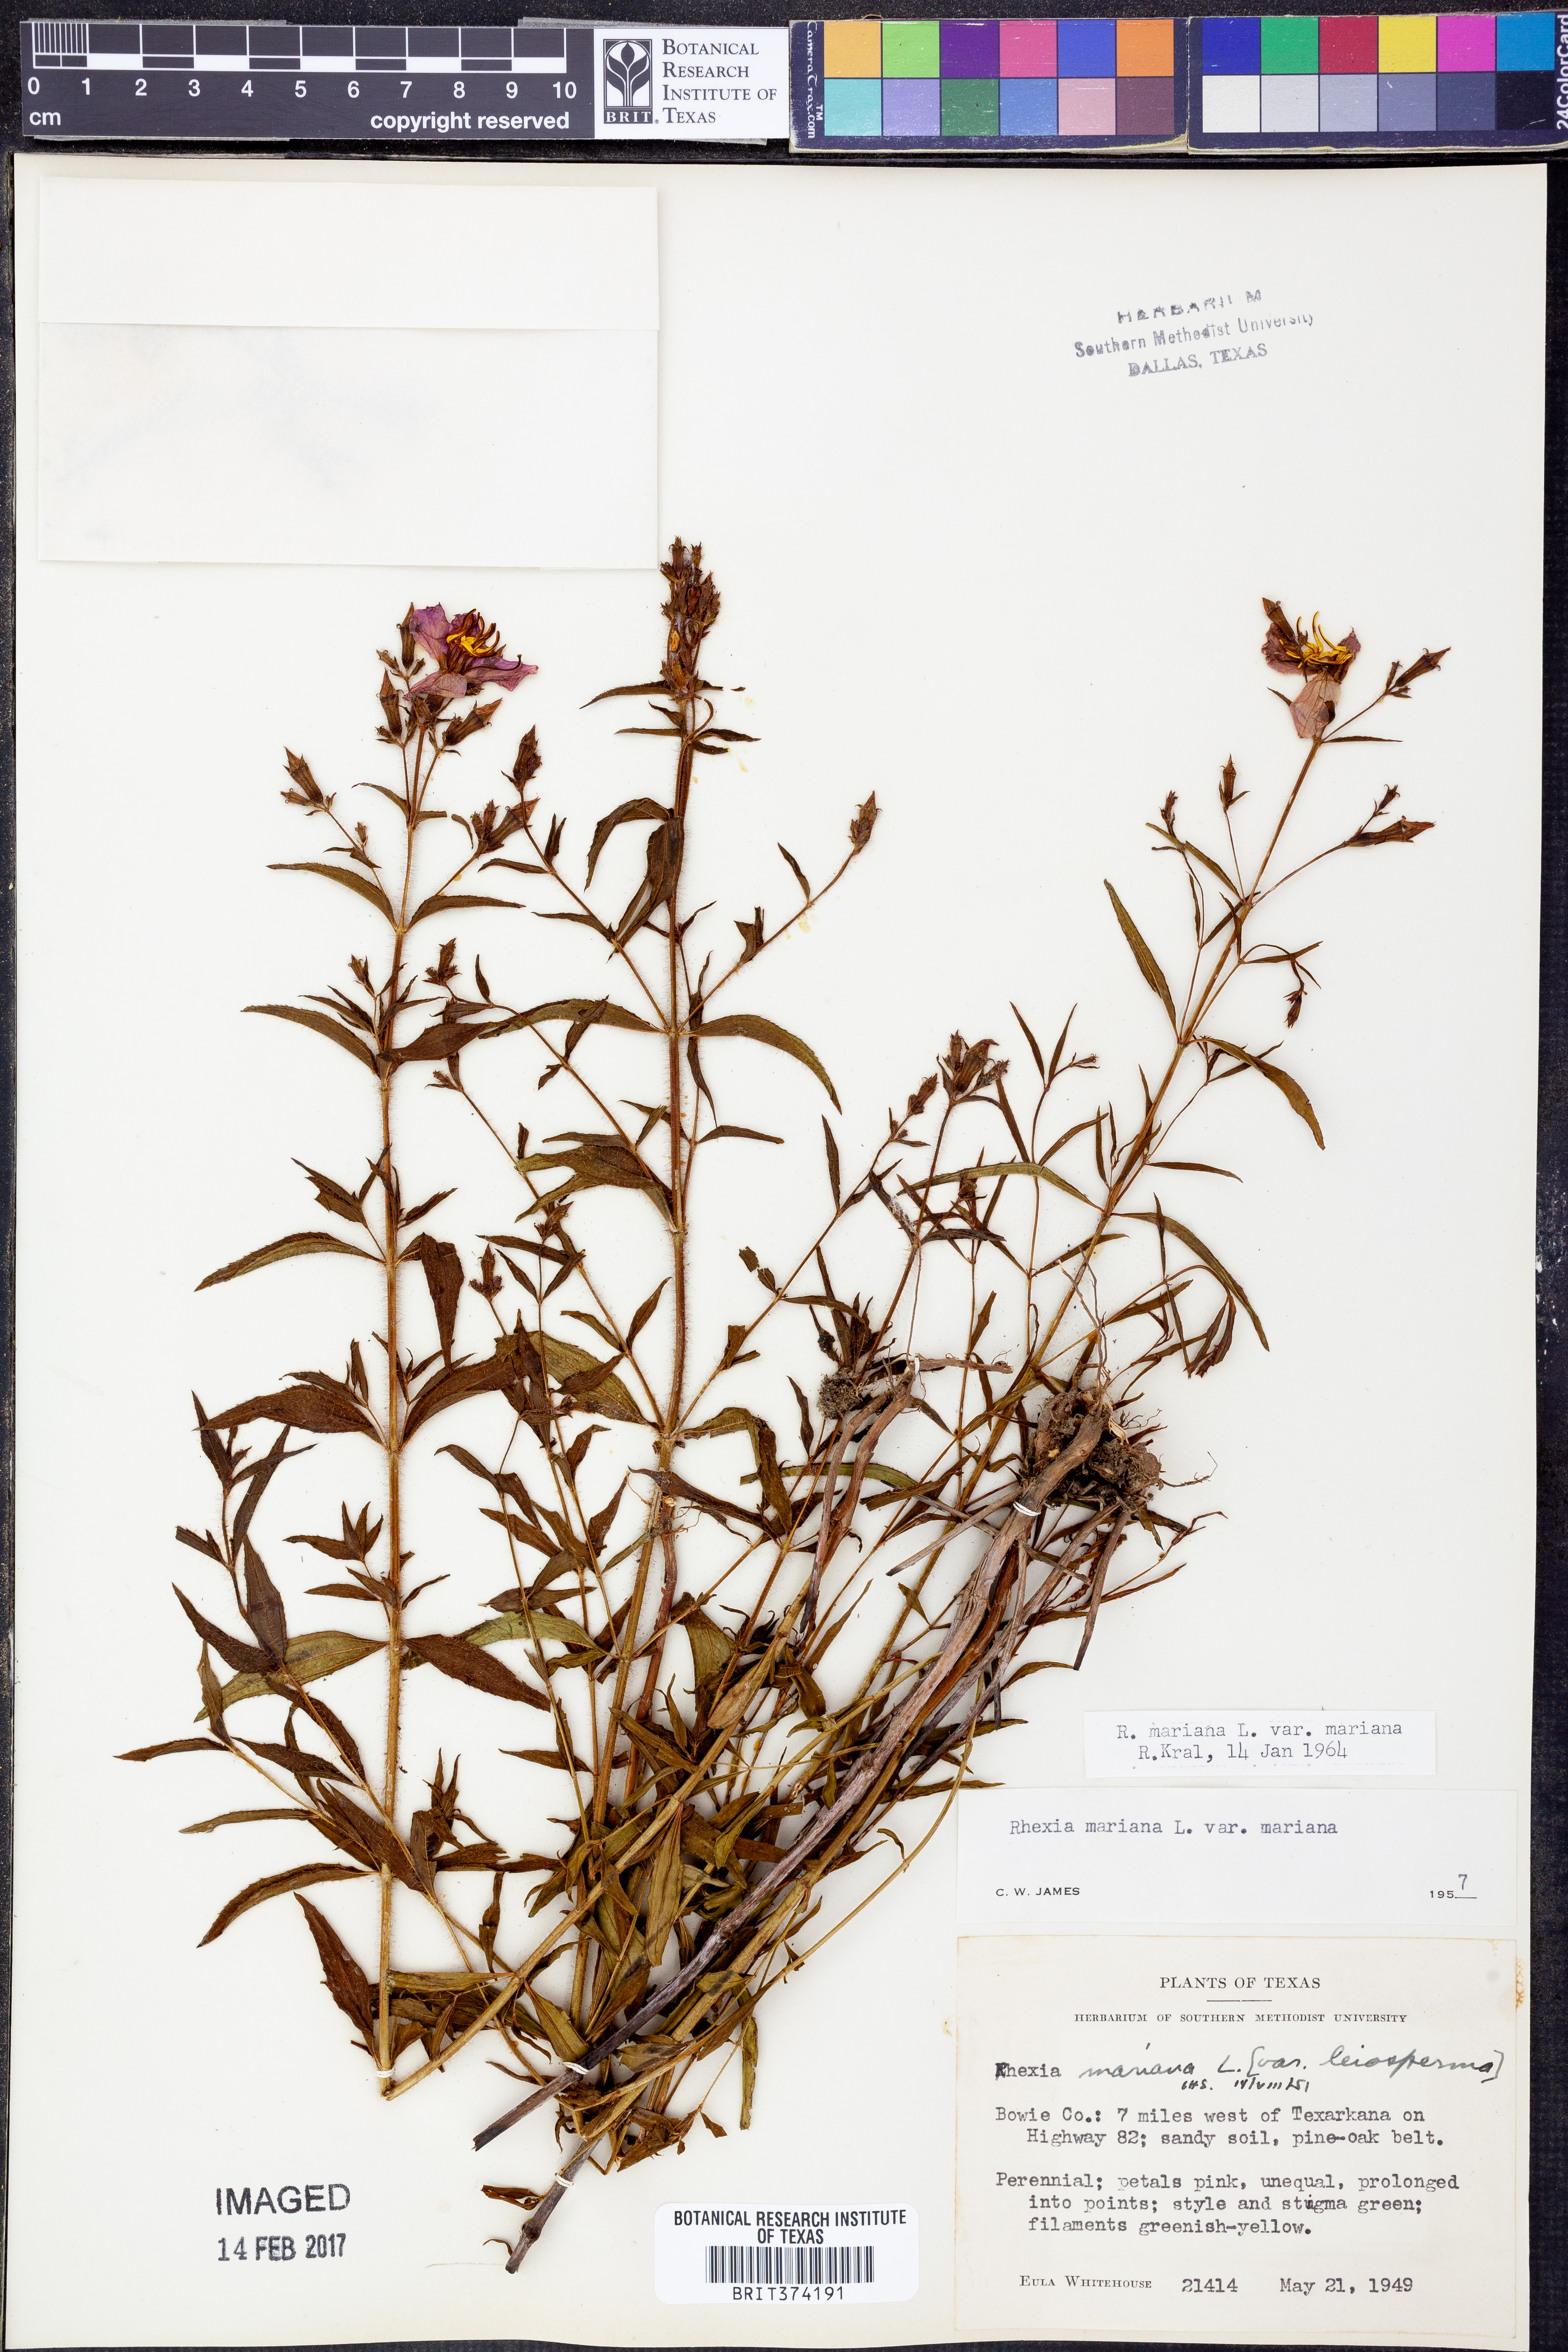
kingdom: Plantae
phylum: Tracheophyta
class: Magnoliopsida
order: Myrtales
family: Melastomataceae
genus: Rhexia
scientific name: Rhexia mariana
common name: Dull meadow-pitcher
